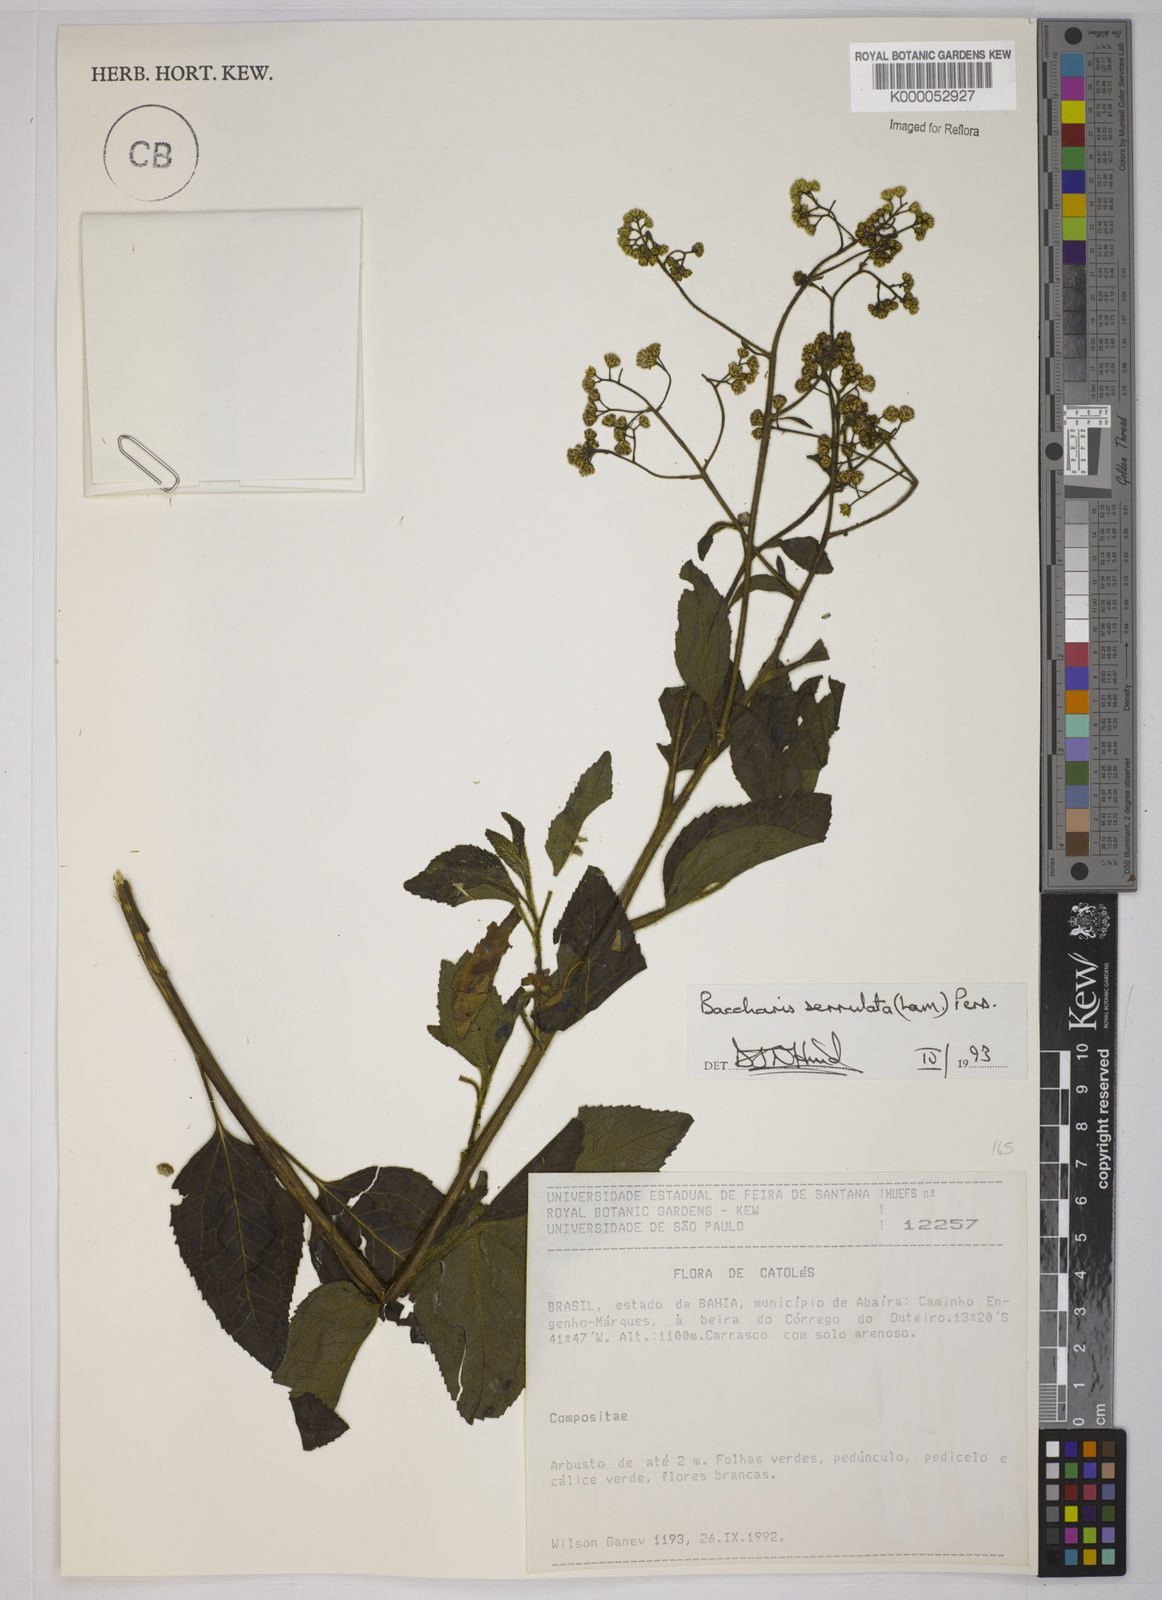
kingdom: Plantae
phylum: Tracheophyta
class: Magnoliopsida
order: Asterales
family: Asteraceae
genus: Baccharis
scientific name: Baccharis serrulata
